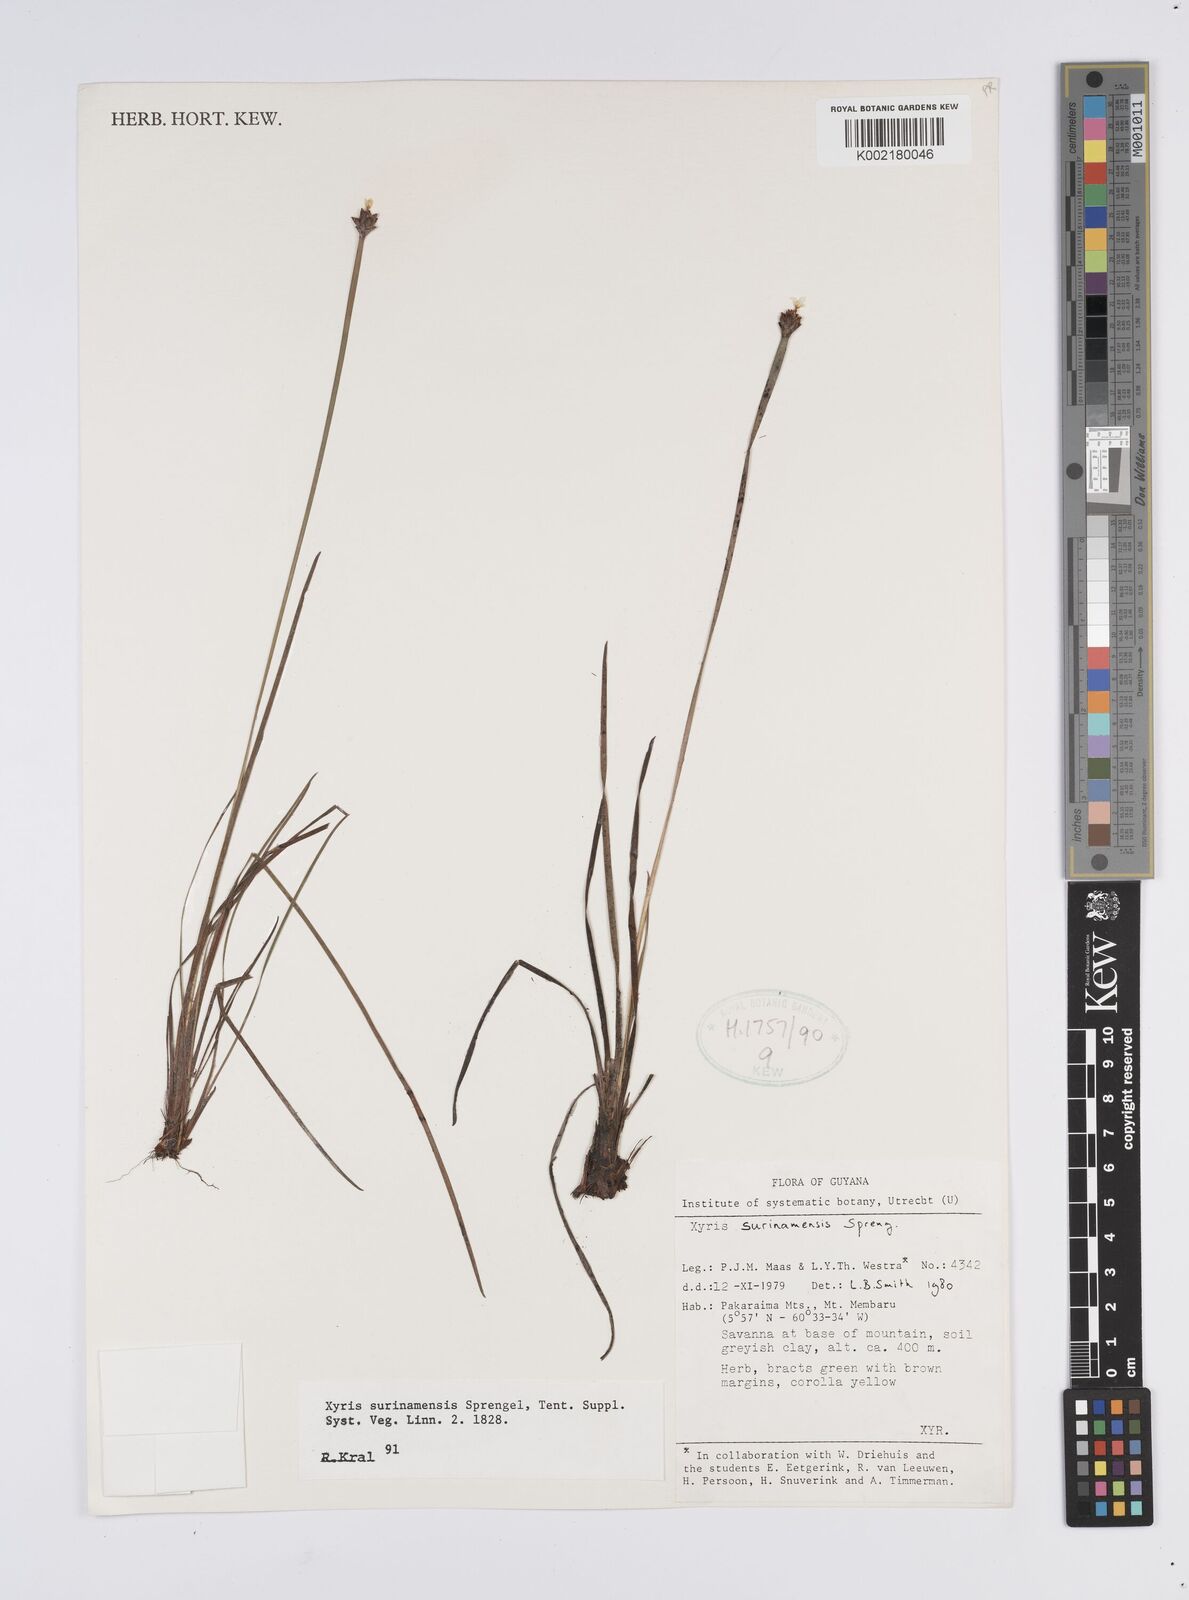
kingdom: Plantae
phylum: Tracheophyta
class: Liliopsida
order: Poales
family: Xyridaceae
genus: Xyris
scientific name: Xyris surinamensis
